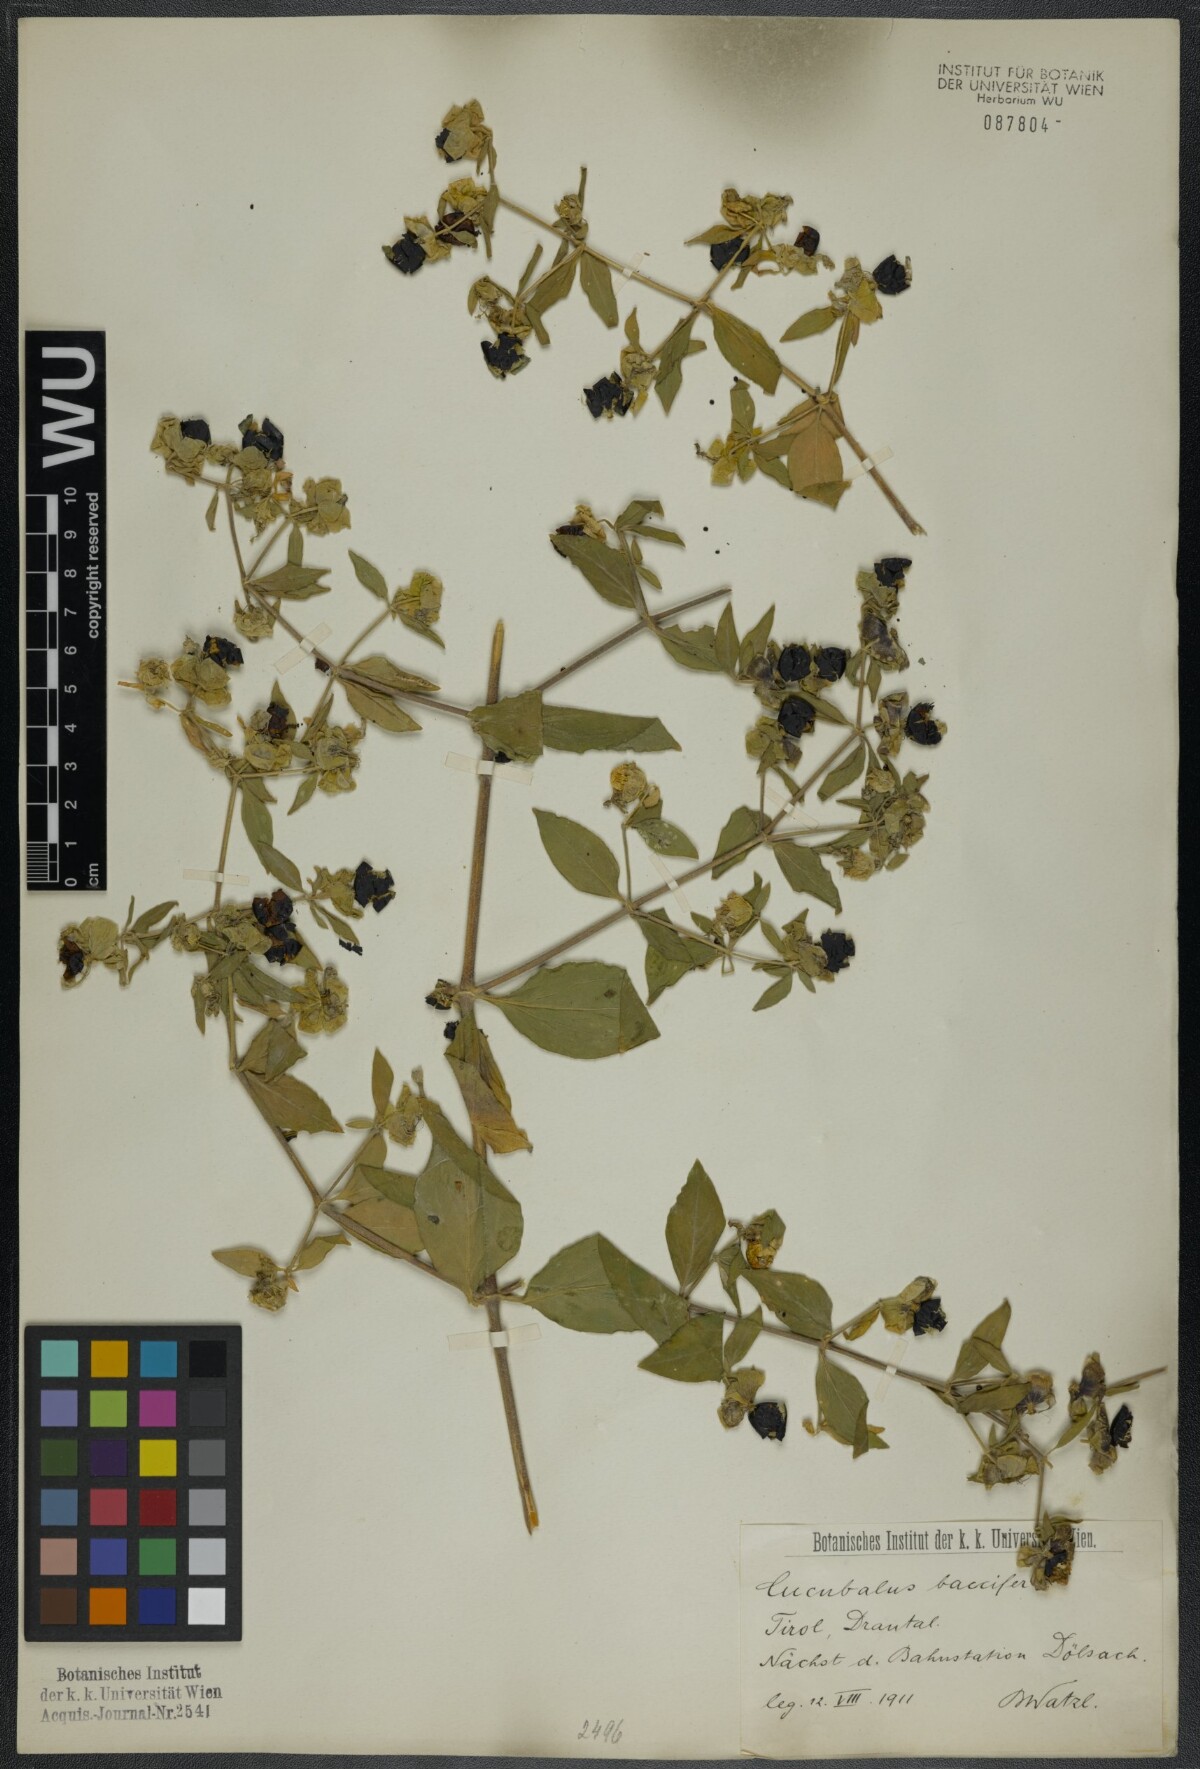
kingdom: Plantae
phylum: Tracheophyta
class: Magnoliopsida
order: Caryophyllales
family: Caryophyllaceae
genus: Silene
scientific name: Silene baccifera
